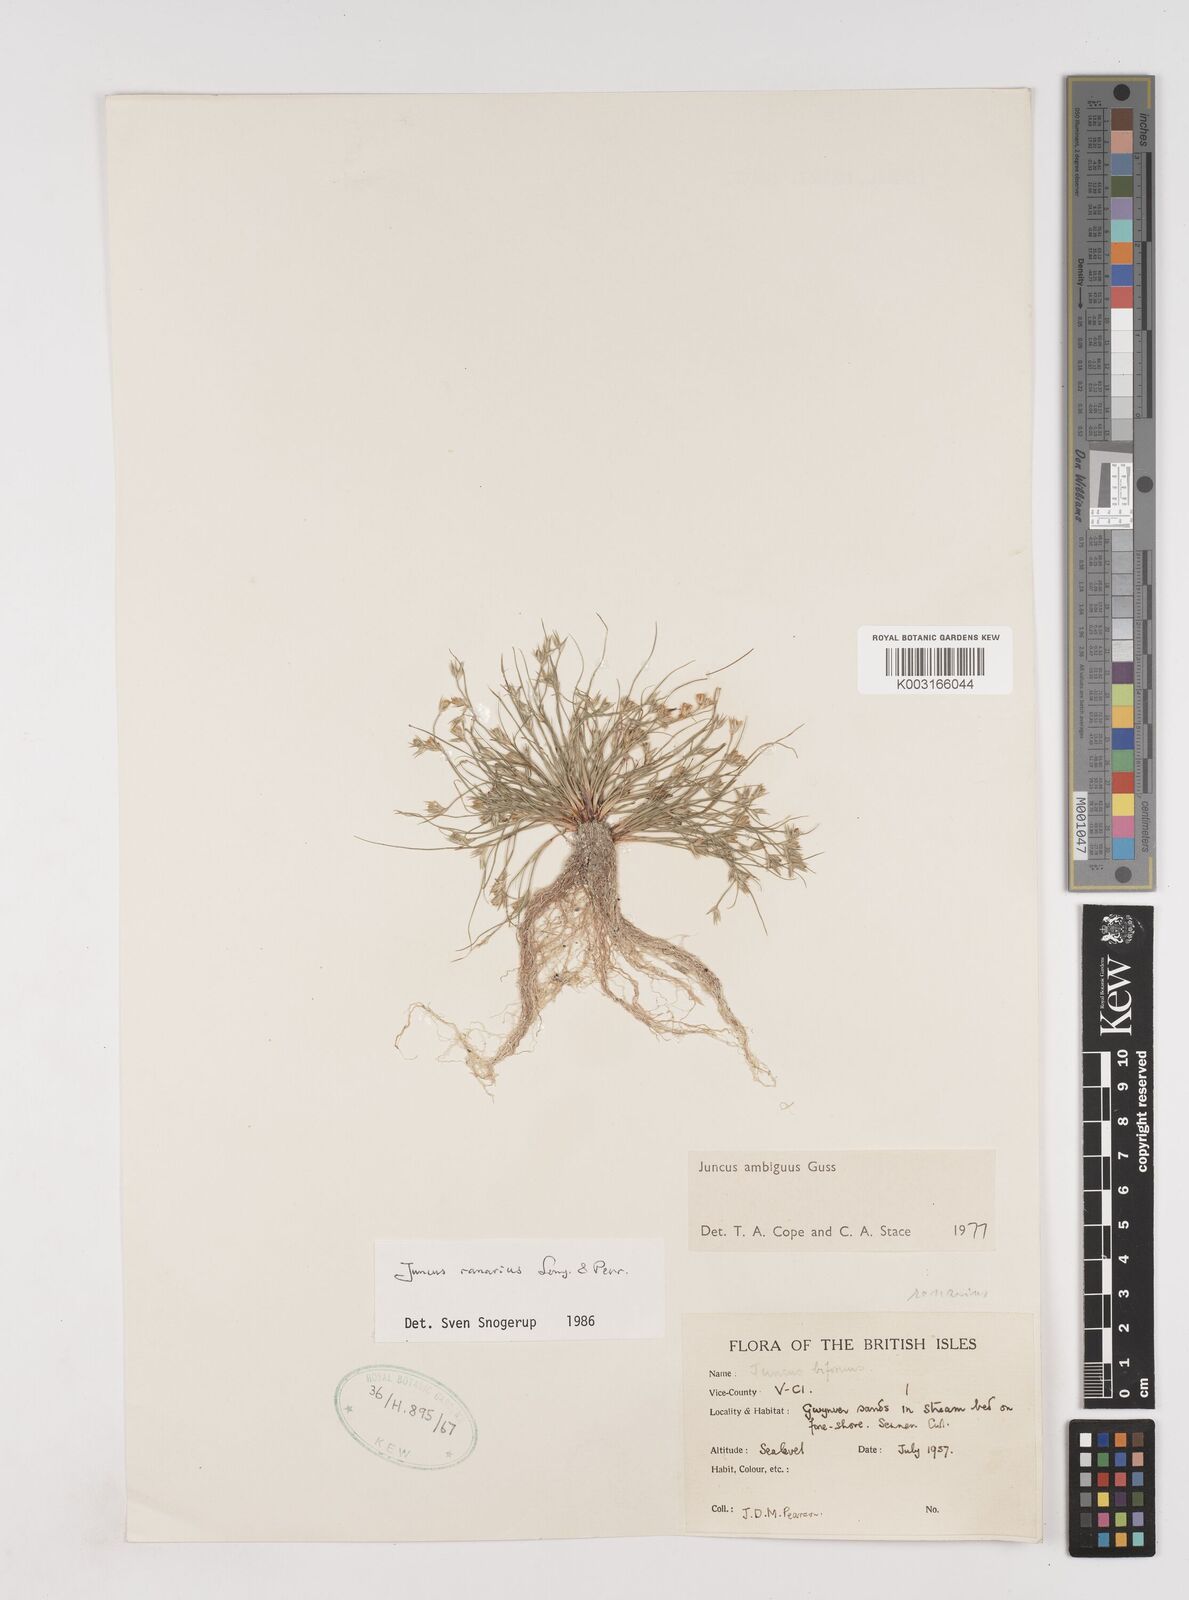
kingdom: Plantae
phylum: Tracheophyta
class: Liliopsida
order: Poales
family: Juncaceae
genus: Juncus
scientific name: Juncus hybridus
